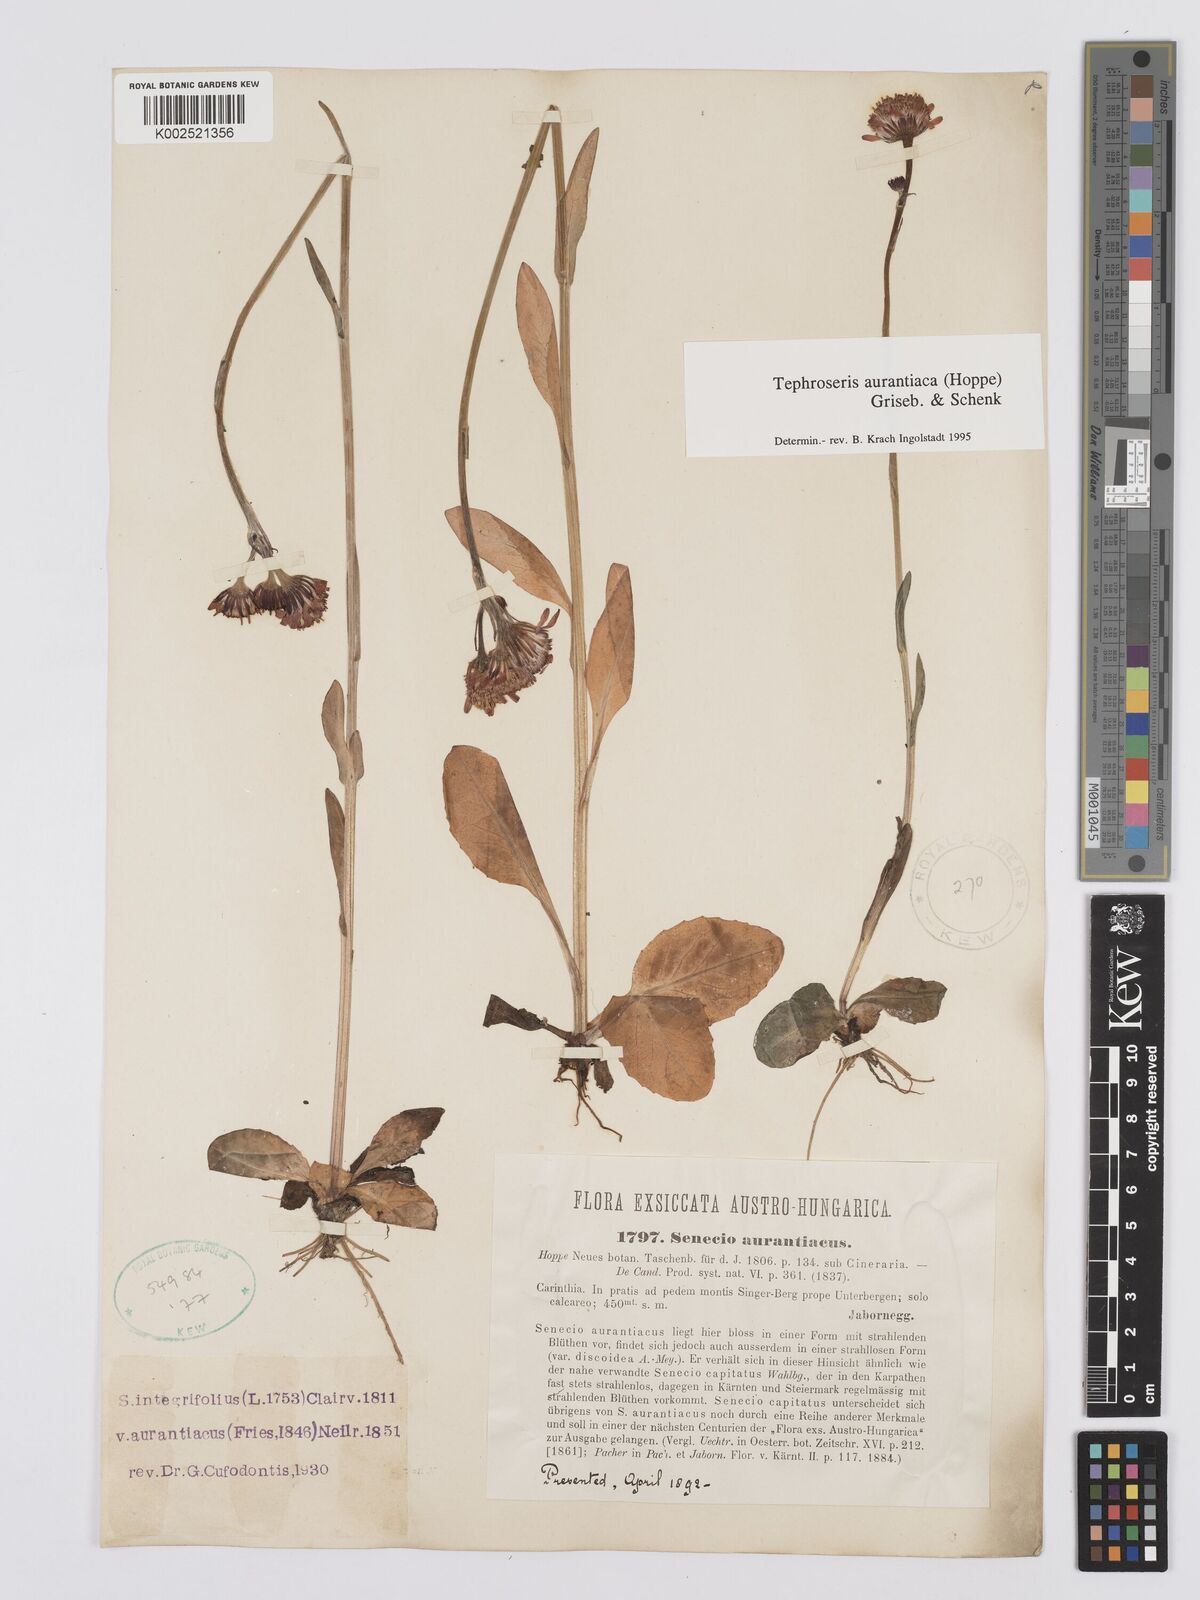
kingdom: Plantae
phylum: Tracheophyta
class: Magnoliopsida
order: Asterales
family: Asteraceae
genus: Tephroseris
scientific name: Tephroseris aurantiaca
